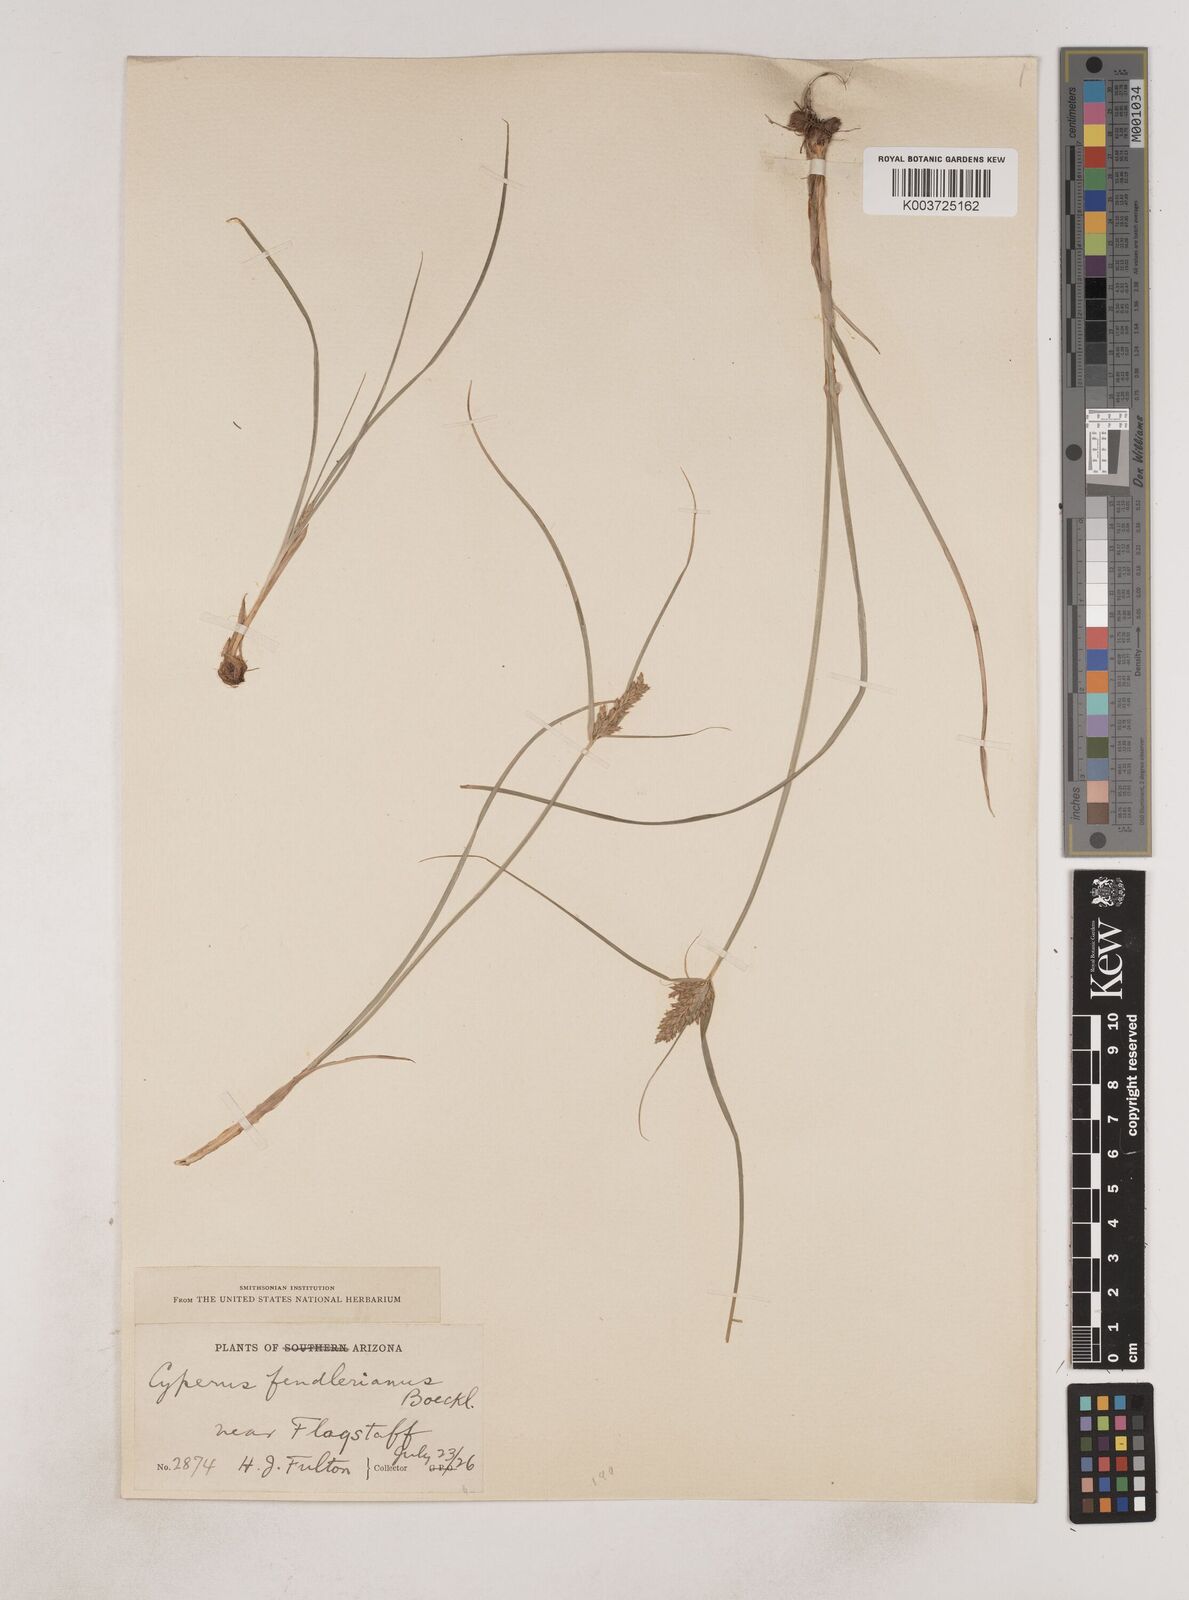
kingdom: Plantae
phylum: Tracheophyta
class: Liliopsida
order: Poales
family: Cyperaceae
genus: Cyperus
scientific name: Cyperus fendlerianus
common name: Fendler flat sedge
